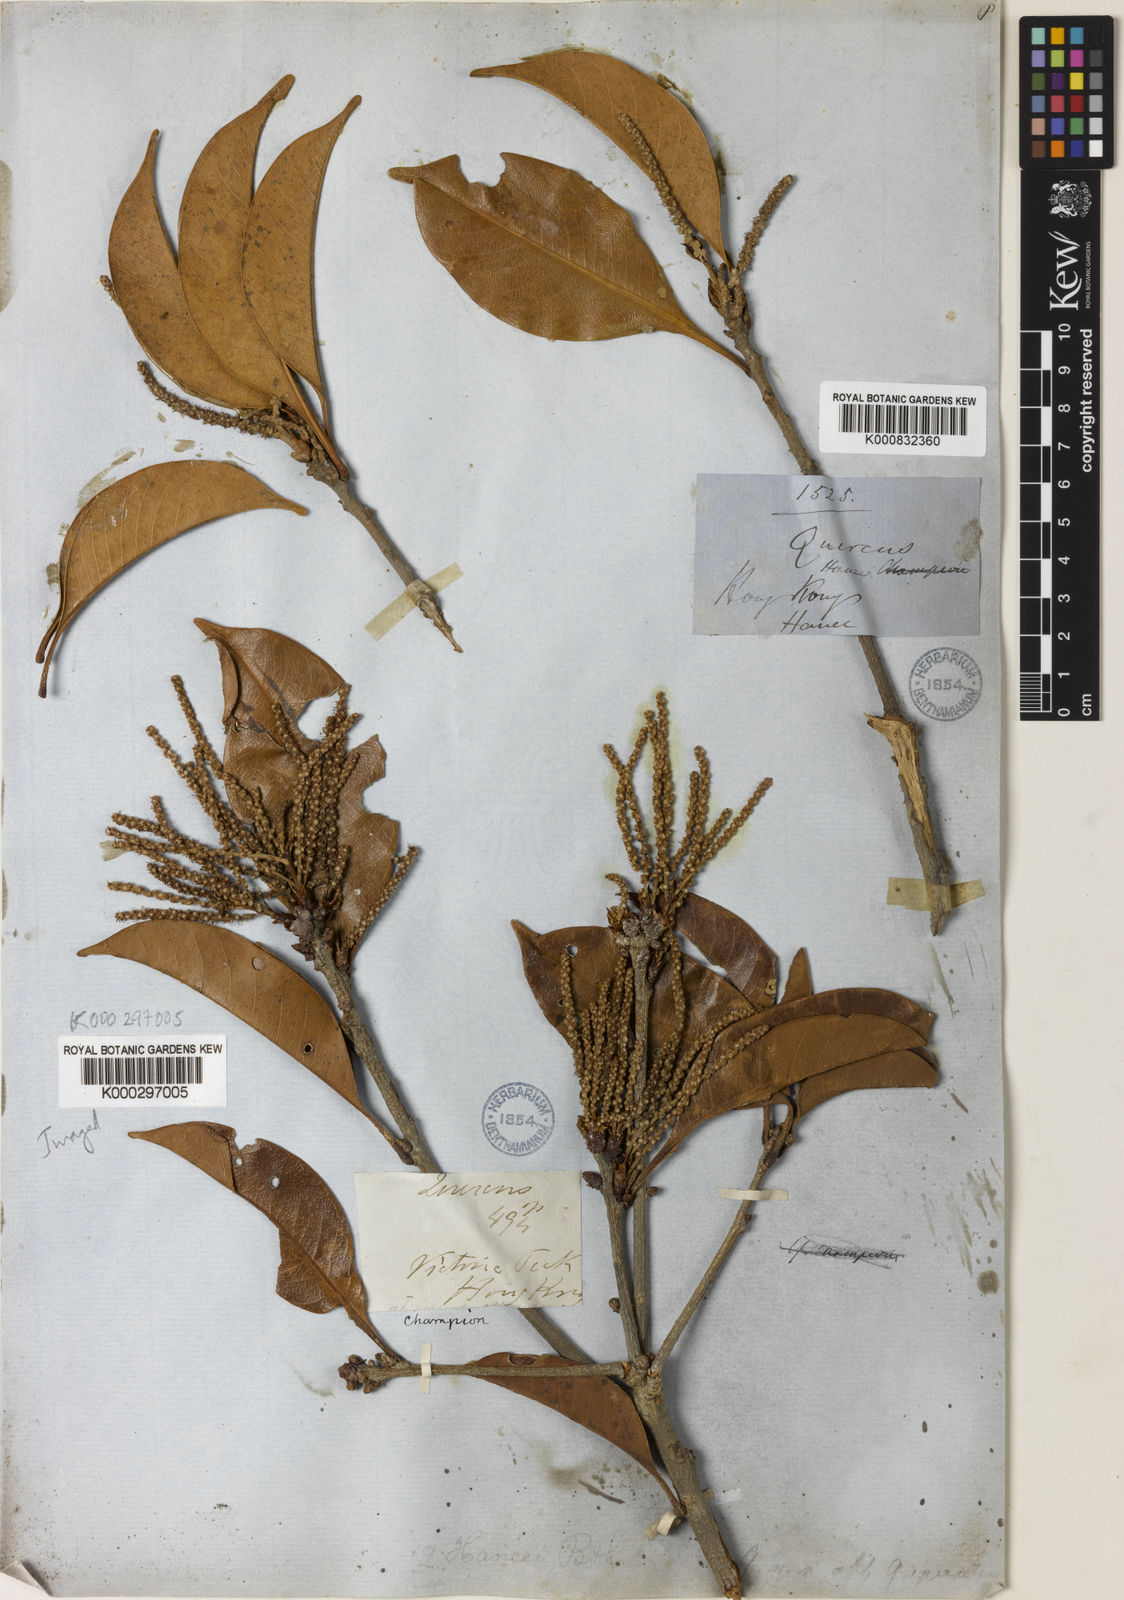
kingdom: Plantae
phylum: Tracheophyta
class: Magnoliopsida
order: Fagales
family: Fagaceae
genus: Lithocarpus
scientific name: Lithocarpus hancei
